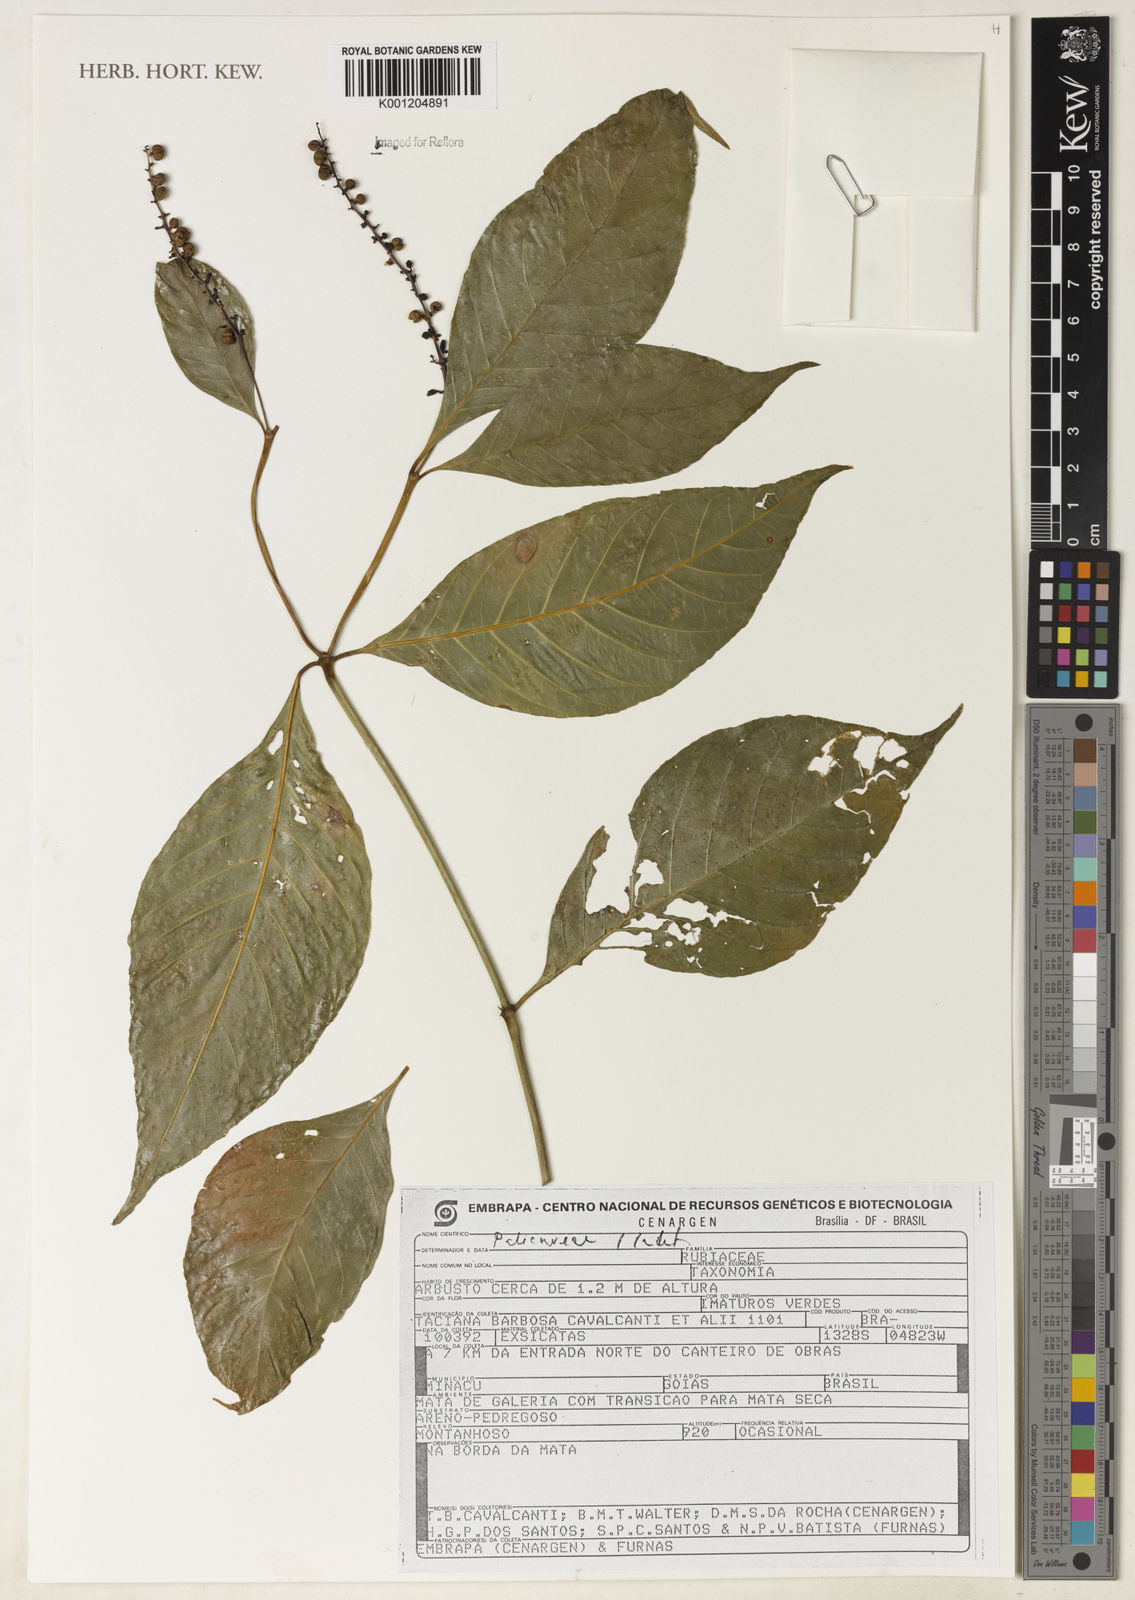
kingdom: Plantae
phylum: Tracheophyta
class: Magnoliopsida
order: Gentianales
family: Rubiaceae
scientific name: Rubiaceae
